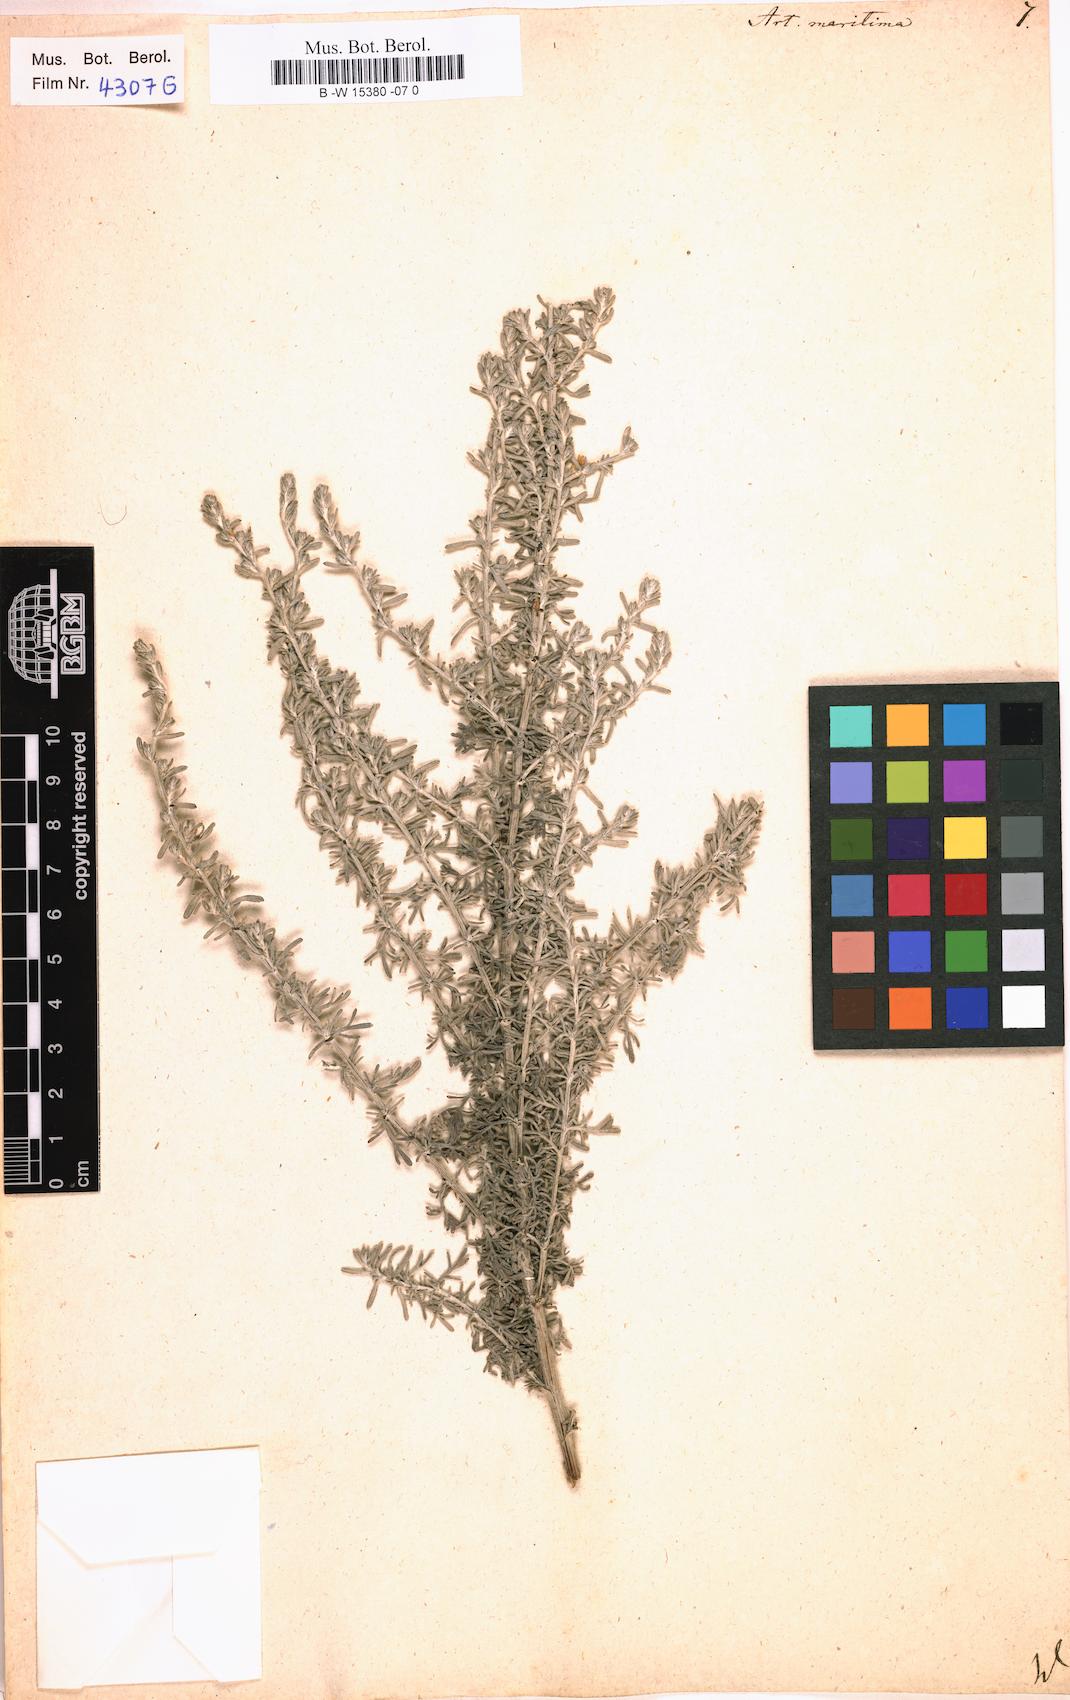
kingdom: Plantae
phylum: Tracheophyta
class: Magnoliopsida
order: Asterales
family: Asteraceae
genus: Artemisia
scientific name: Artemisia maritima
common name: Wormseed
